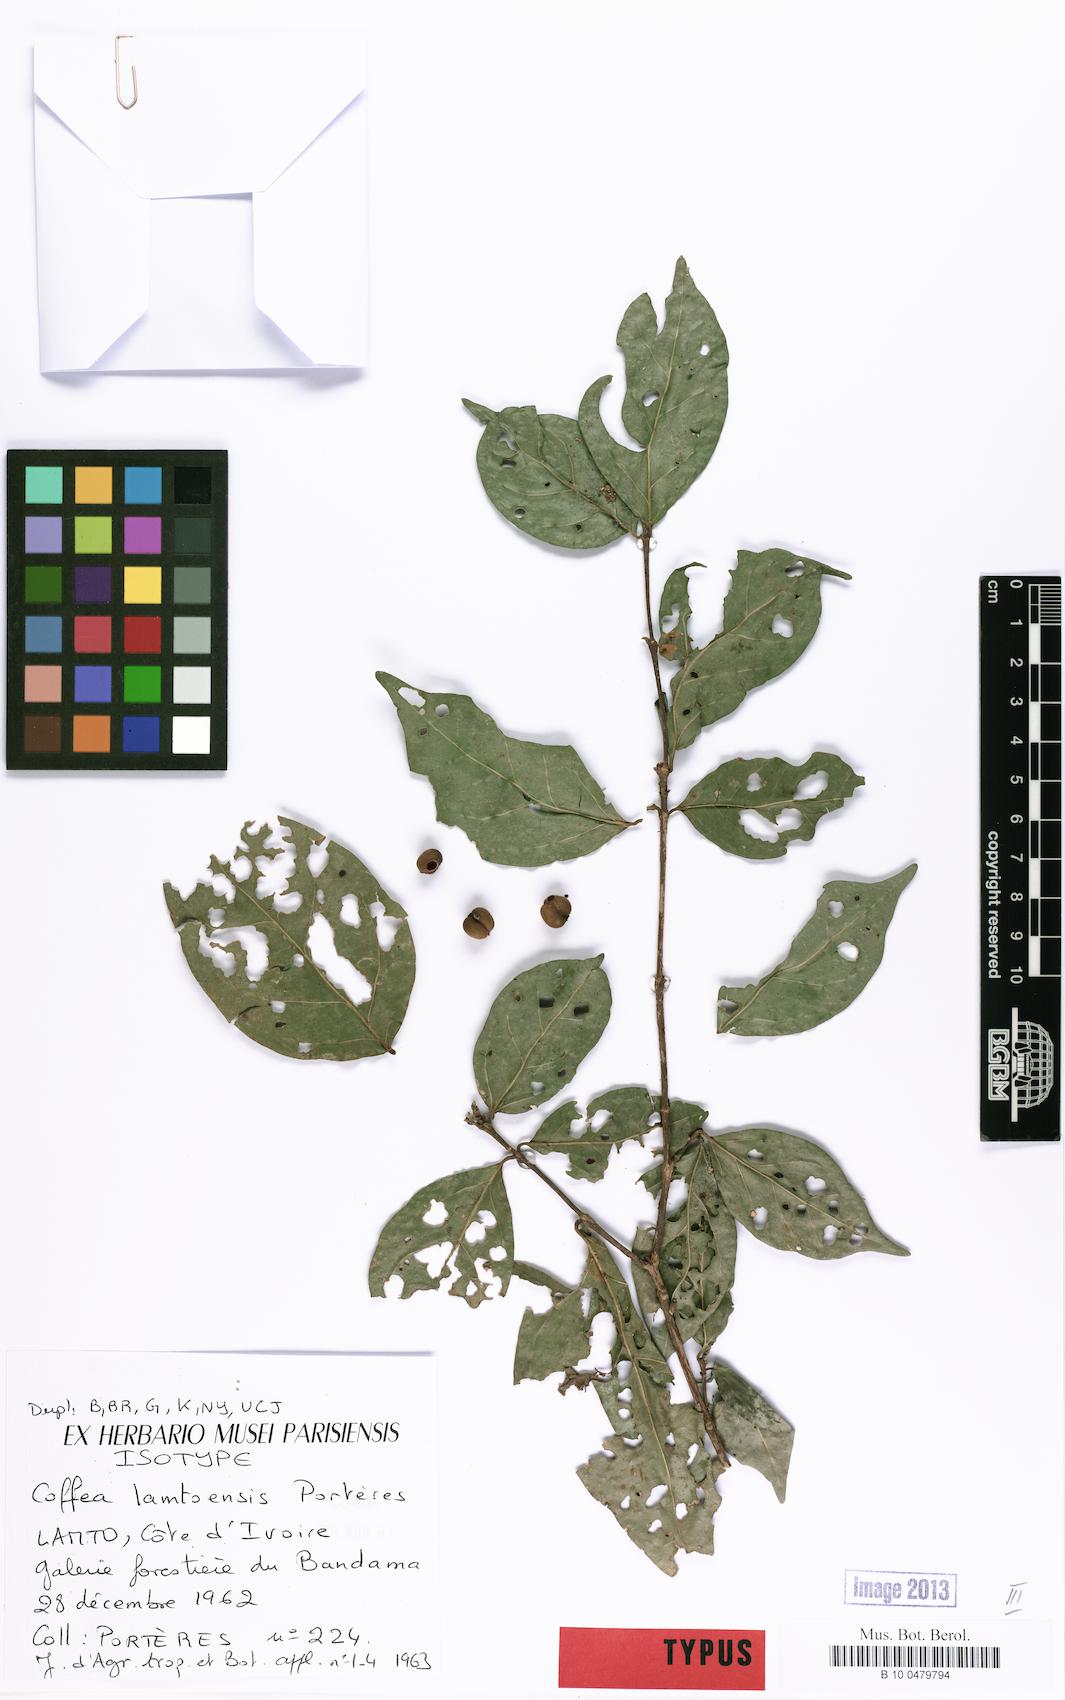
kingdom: Plantae
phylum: Tracheophyta
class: Magnoliopsida
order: Gentianales
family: Rubiaceae
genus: Coffea
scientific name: Coffea ebracteolata
